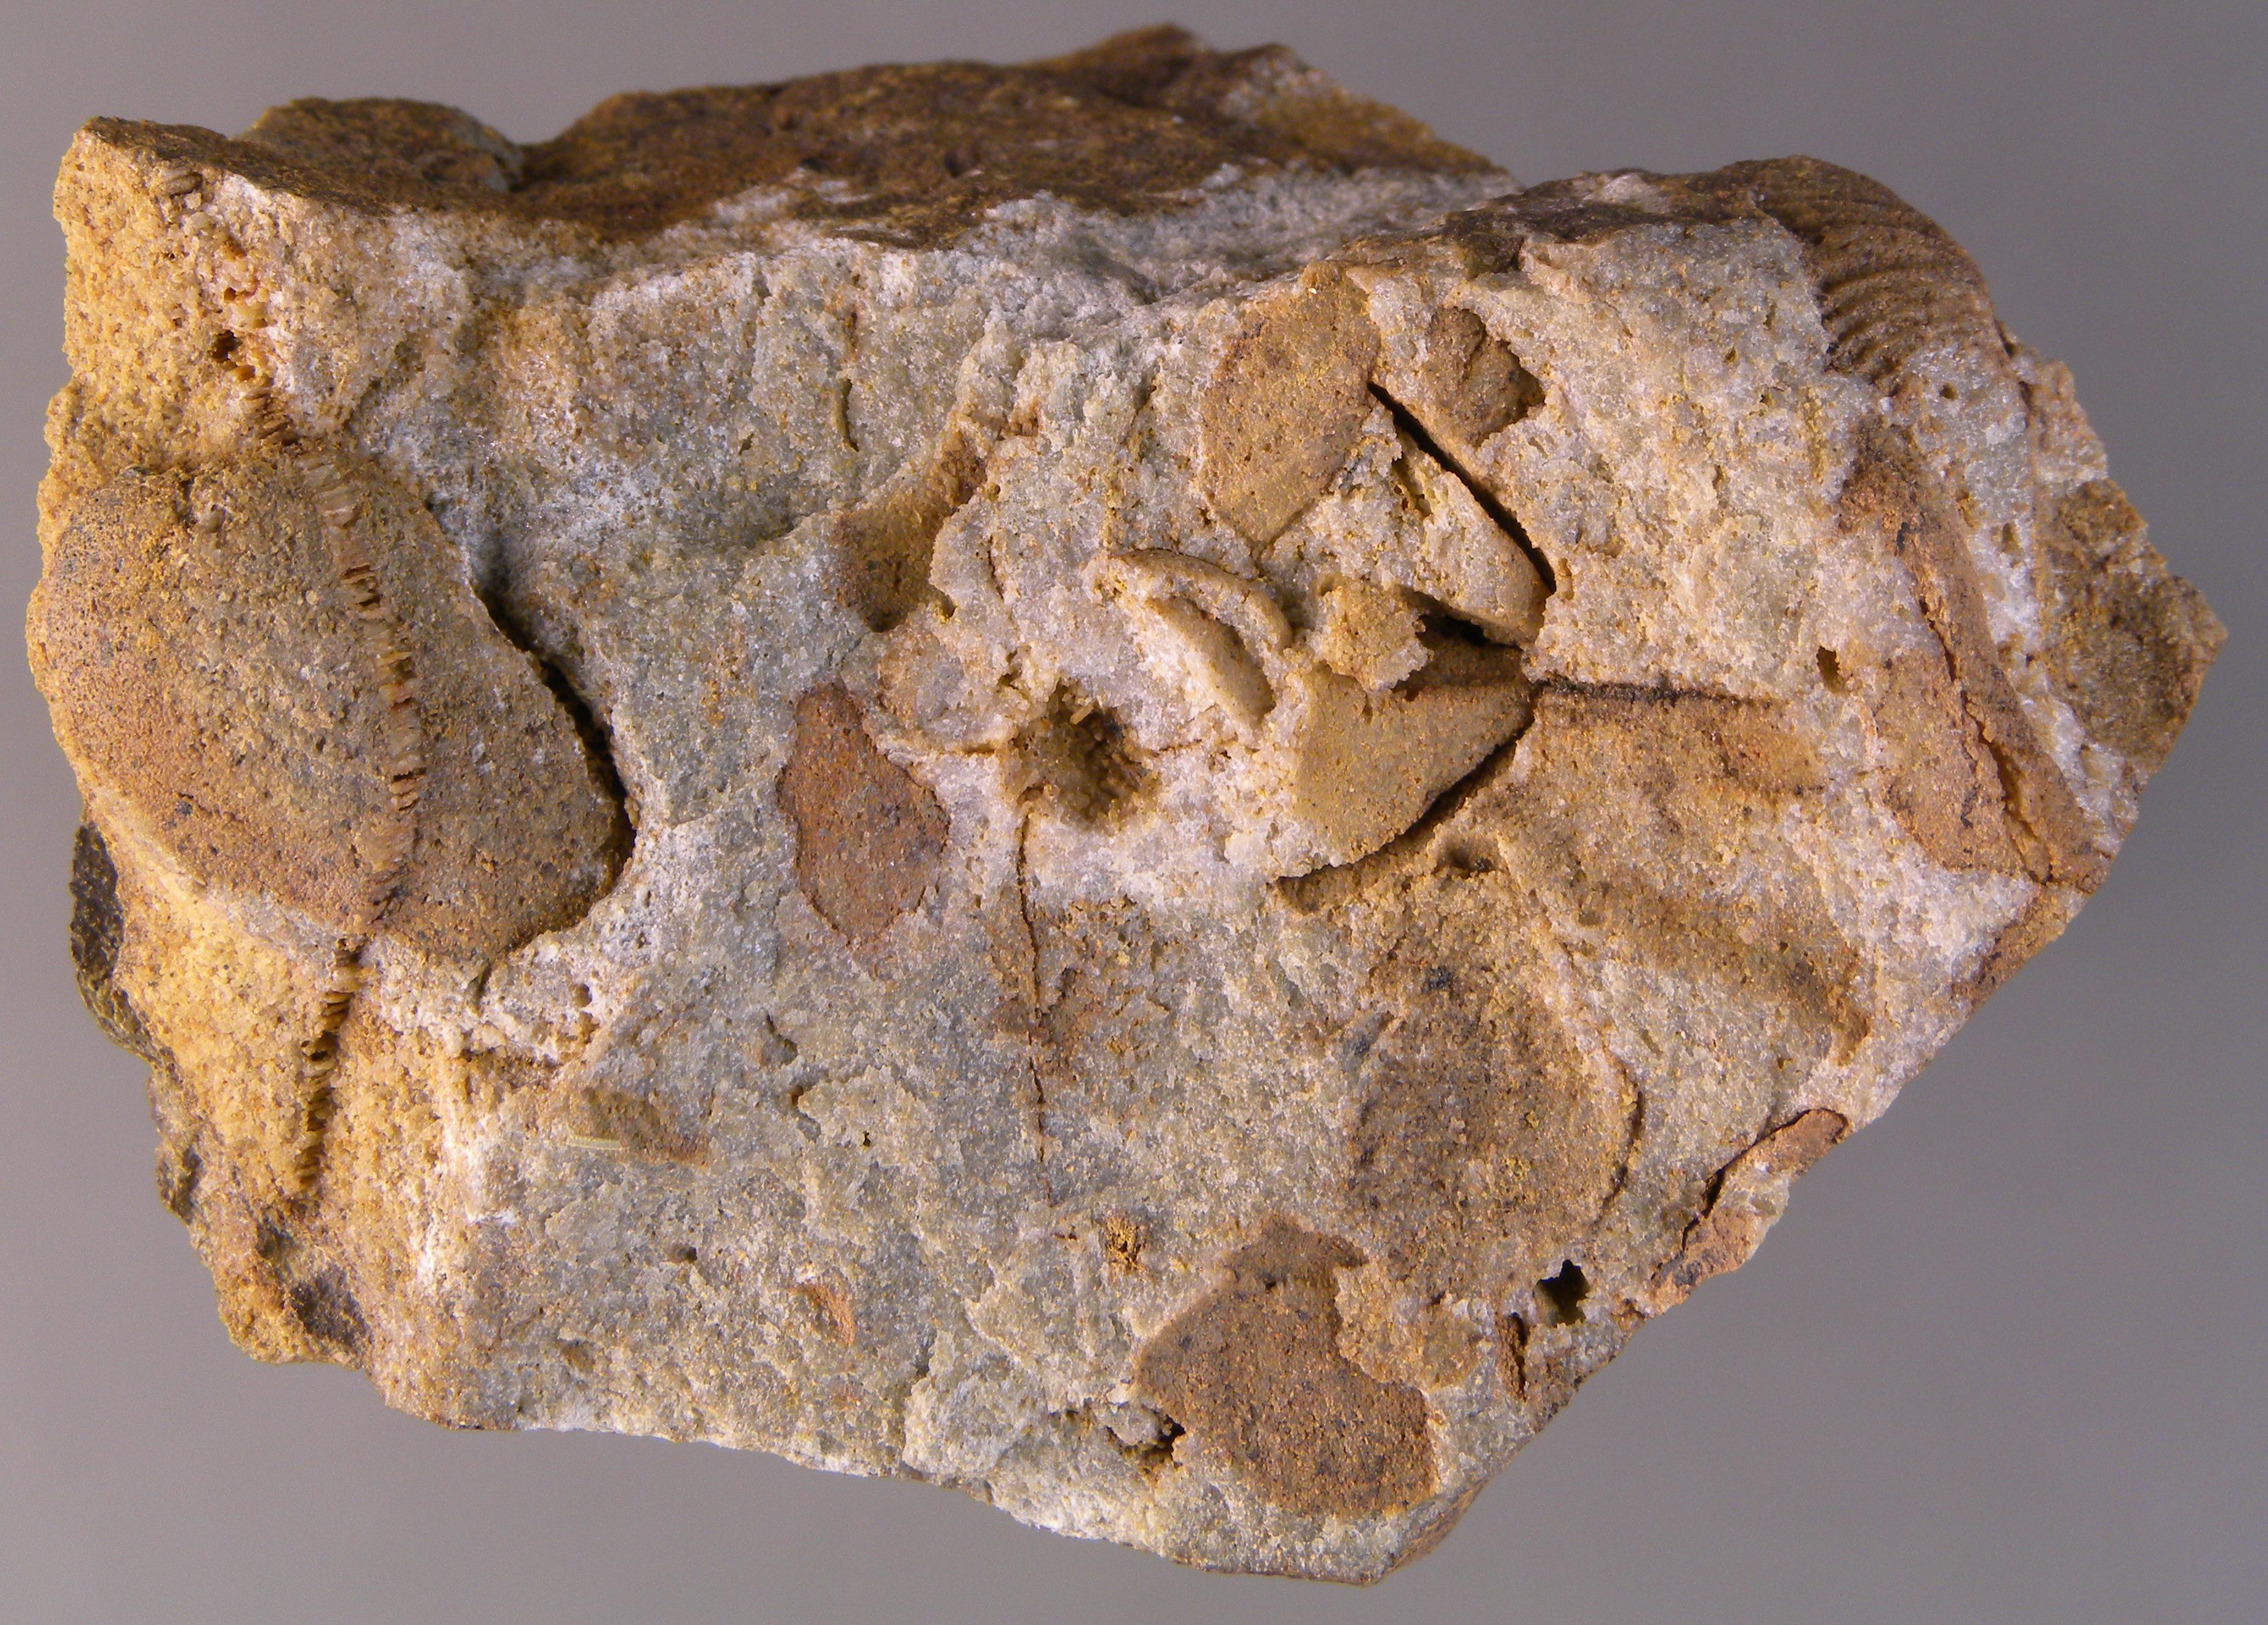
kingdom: Animalia
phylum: Mollusca
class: Bivalvia
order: Nuculanida
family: Malletiidae
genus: Palaeoneilo
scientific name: Palaeoneilo
